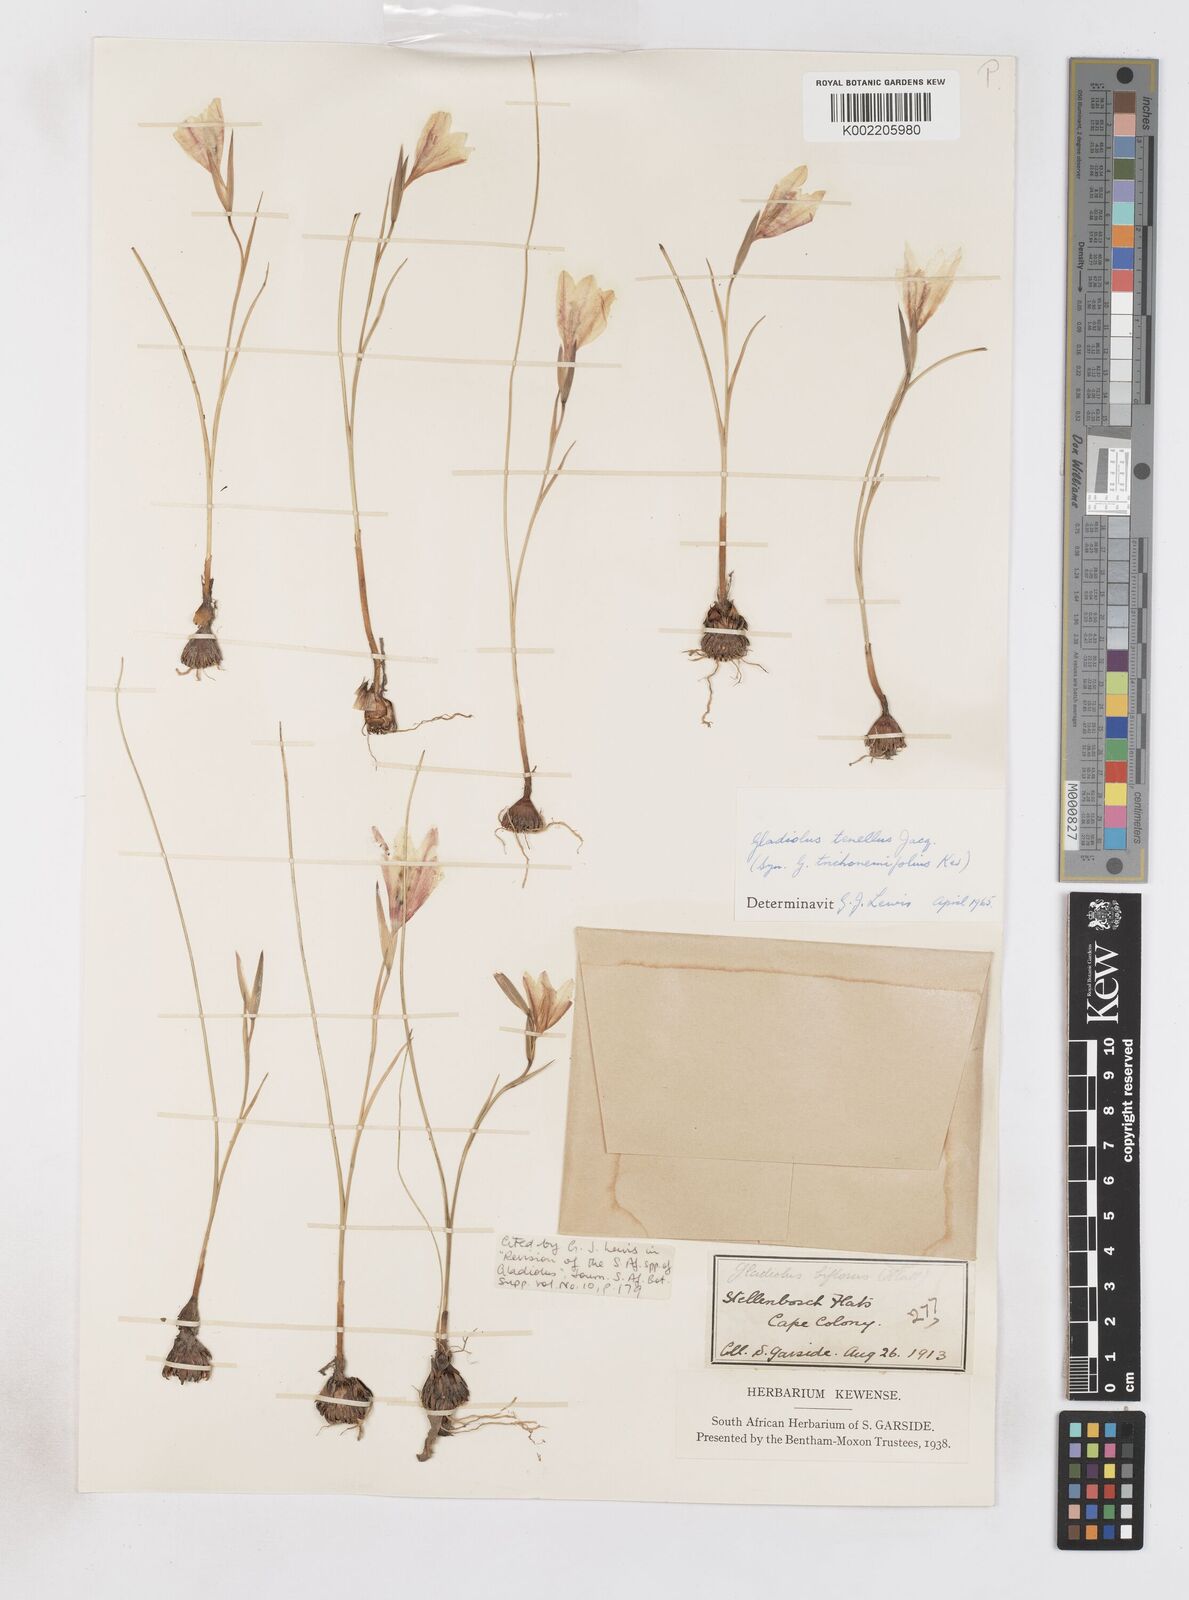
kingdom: Plantae
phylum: Tracheophyta
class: Liliopsida
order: Asparagales
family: Iridaceae
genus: Gladiolus
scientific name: Gladiolus carinatus
